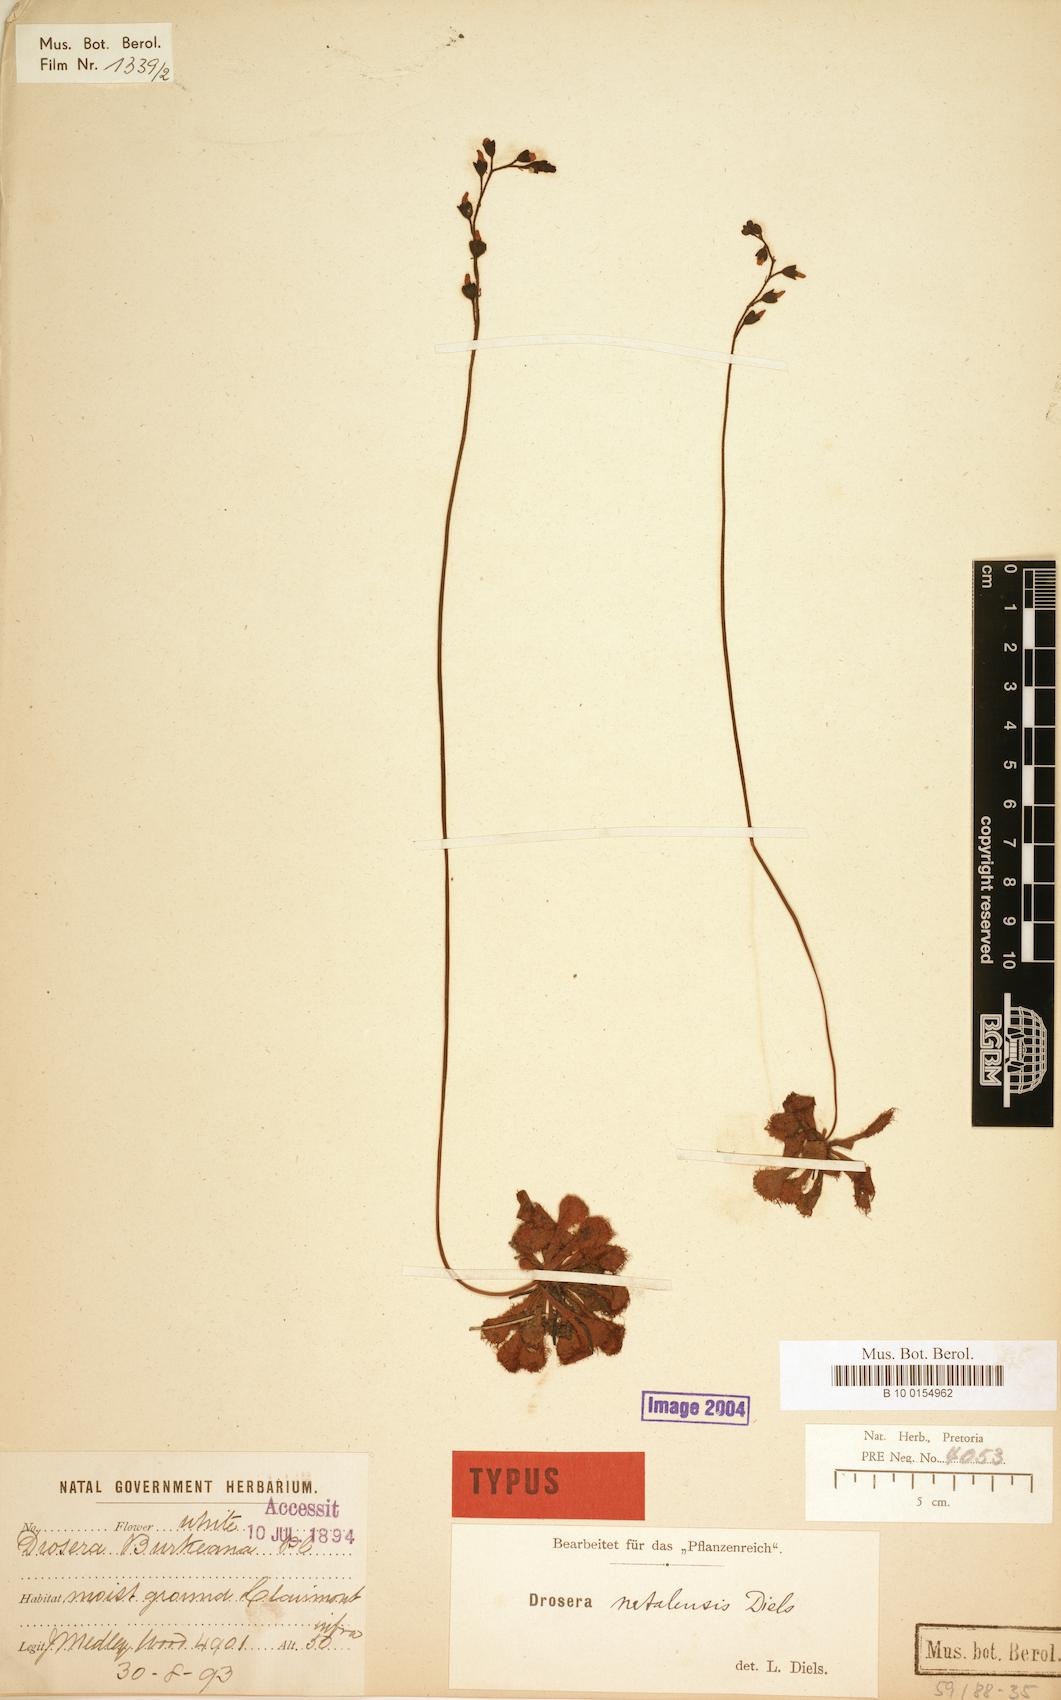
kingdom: Plantae
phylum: Tracheophyta
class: Magnoliopsida
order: Caryophyllales
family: Droseraceae
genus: Drosera
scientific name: Drosera natalensis
